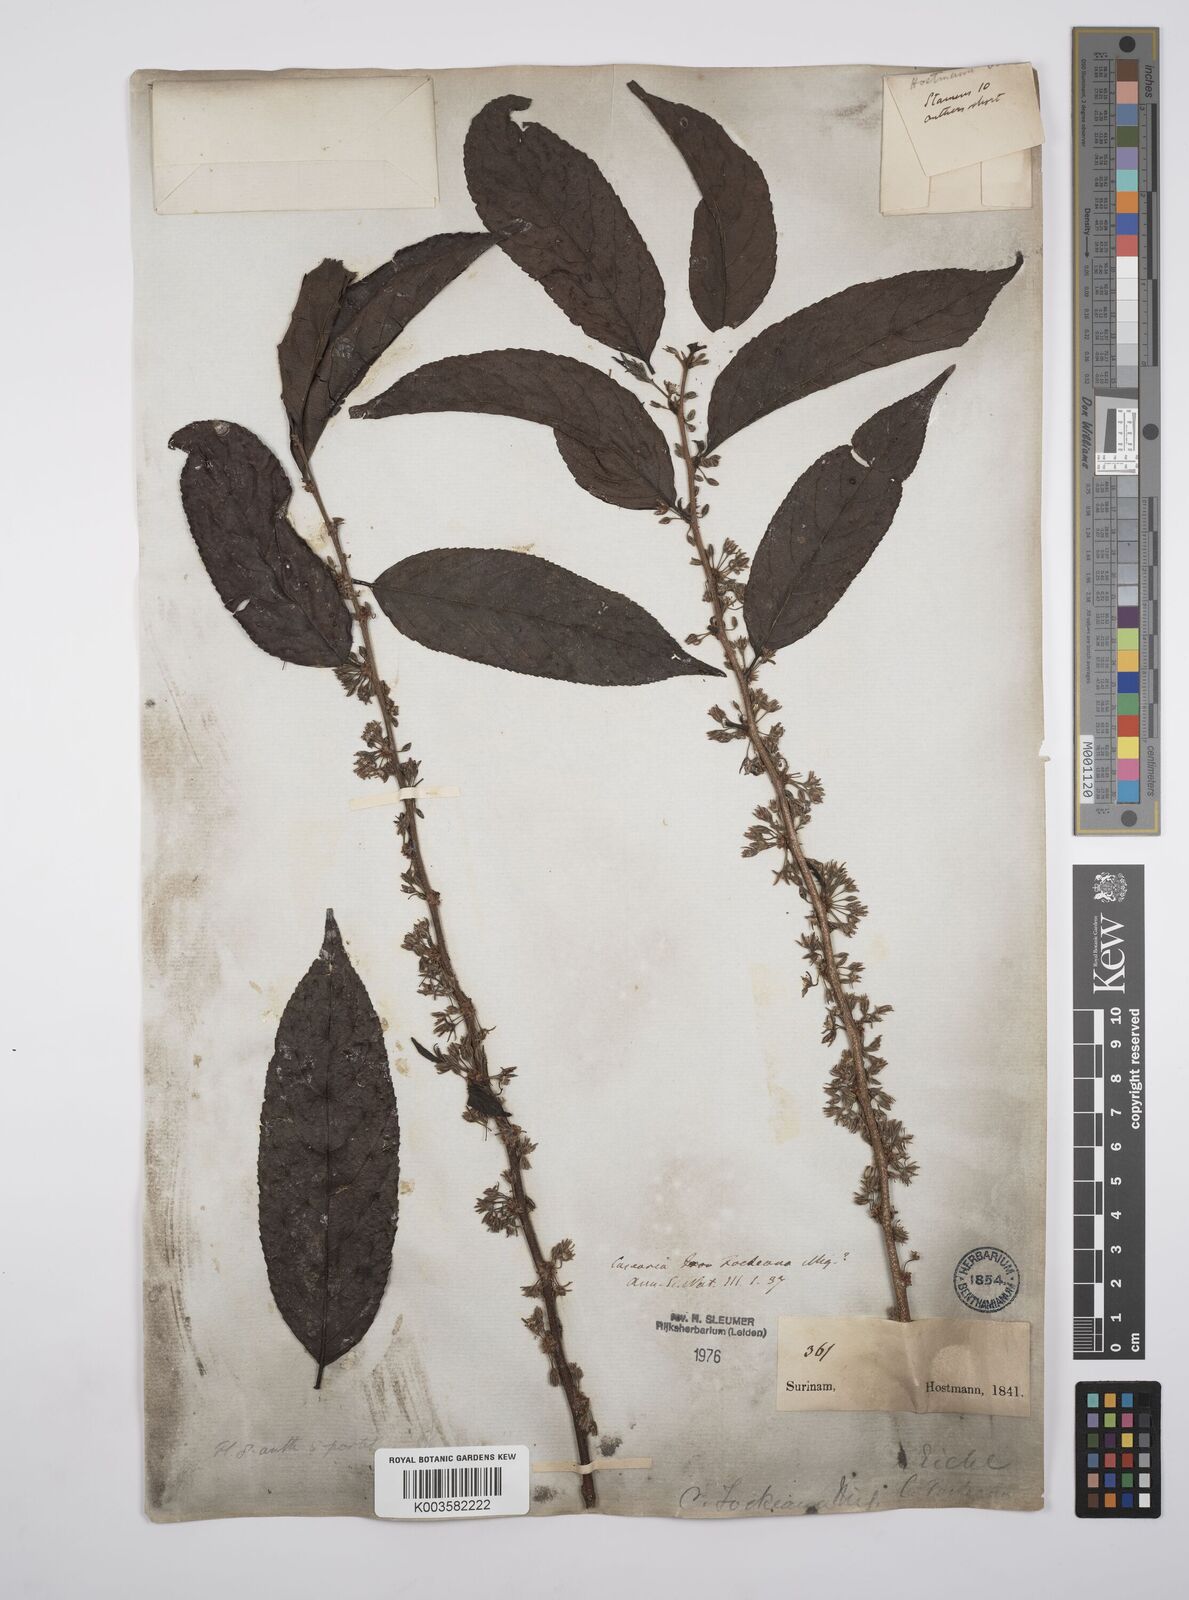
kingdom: Plantae
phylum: Tracheophyta
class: Magnoliopsida
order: Malpighiales
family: Salicaceae
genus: Casearia
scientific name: Casearia mariquitensis
